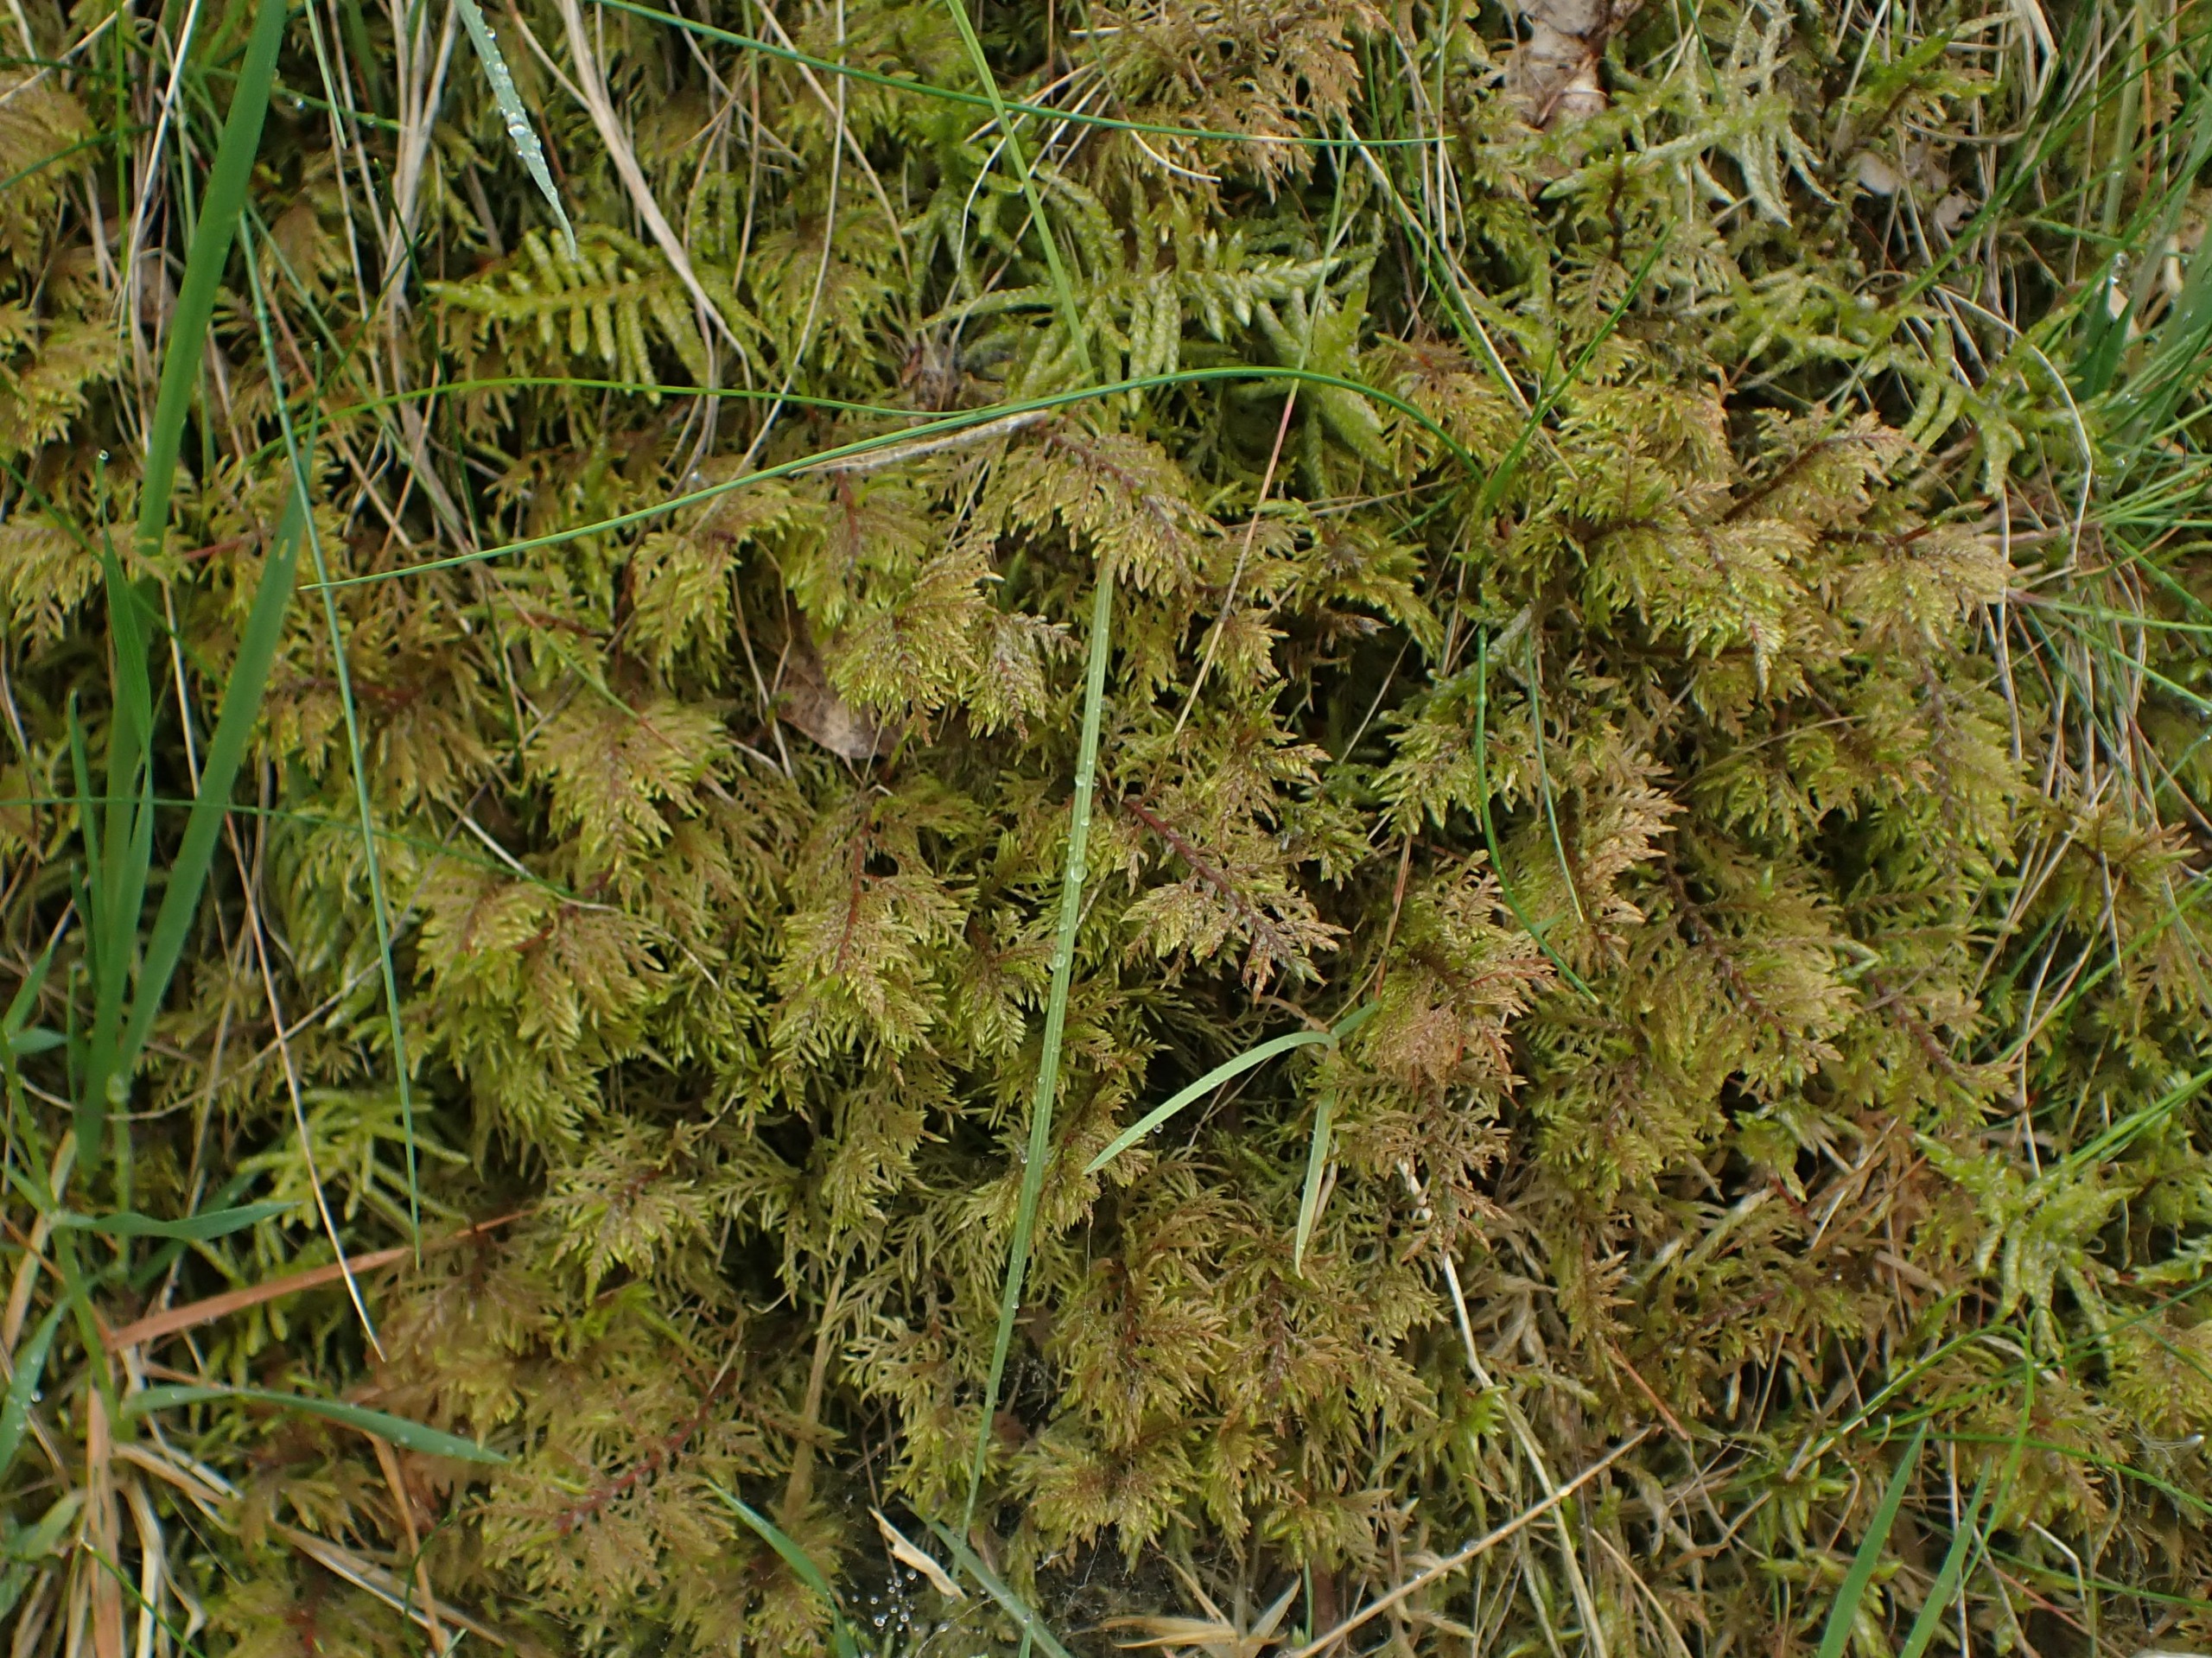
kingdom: Plantae
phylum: Bryophyta
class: Bryopsida
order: Hypnales
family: Hylocomiaceae
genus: Hylocomium
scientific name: Hylocomium splendens
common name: Almindelig etagemos
